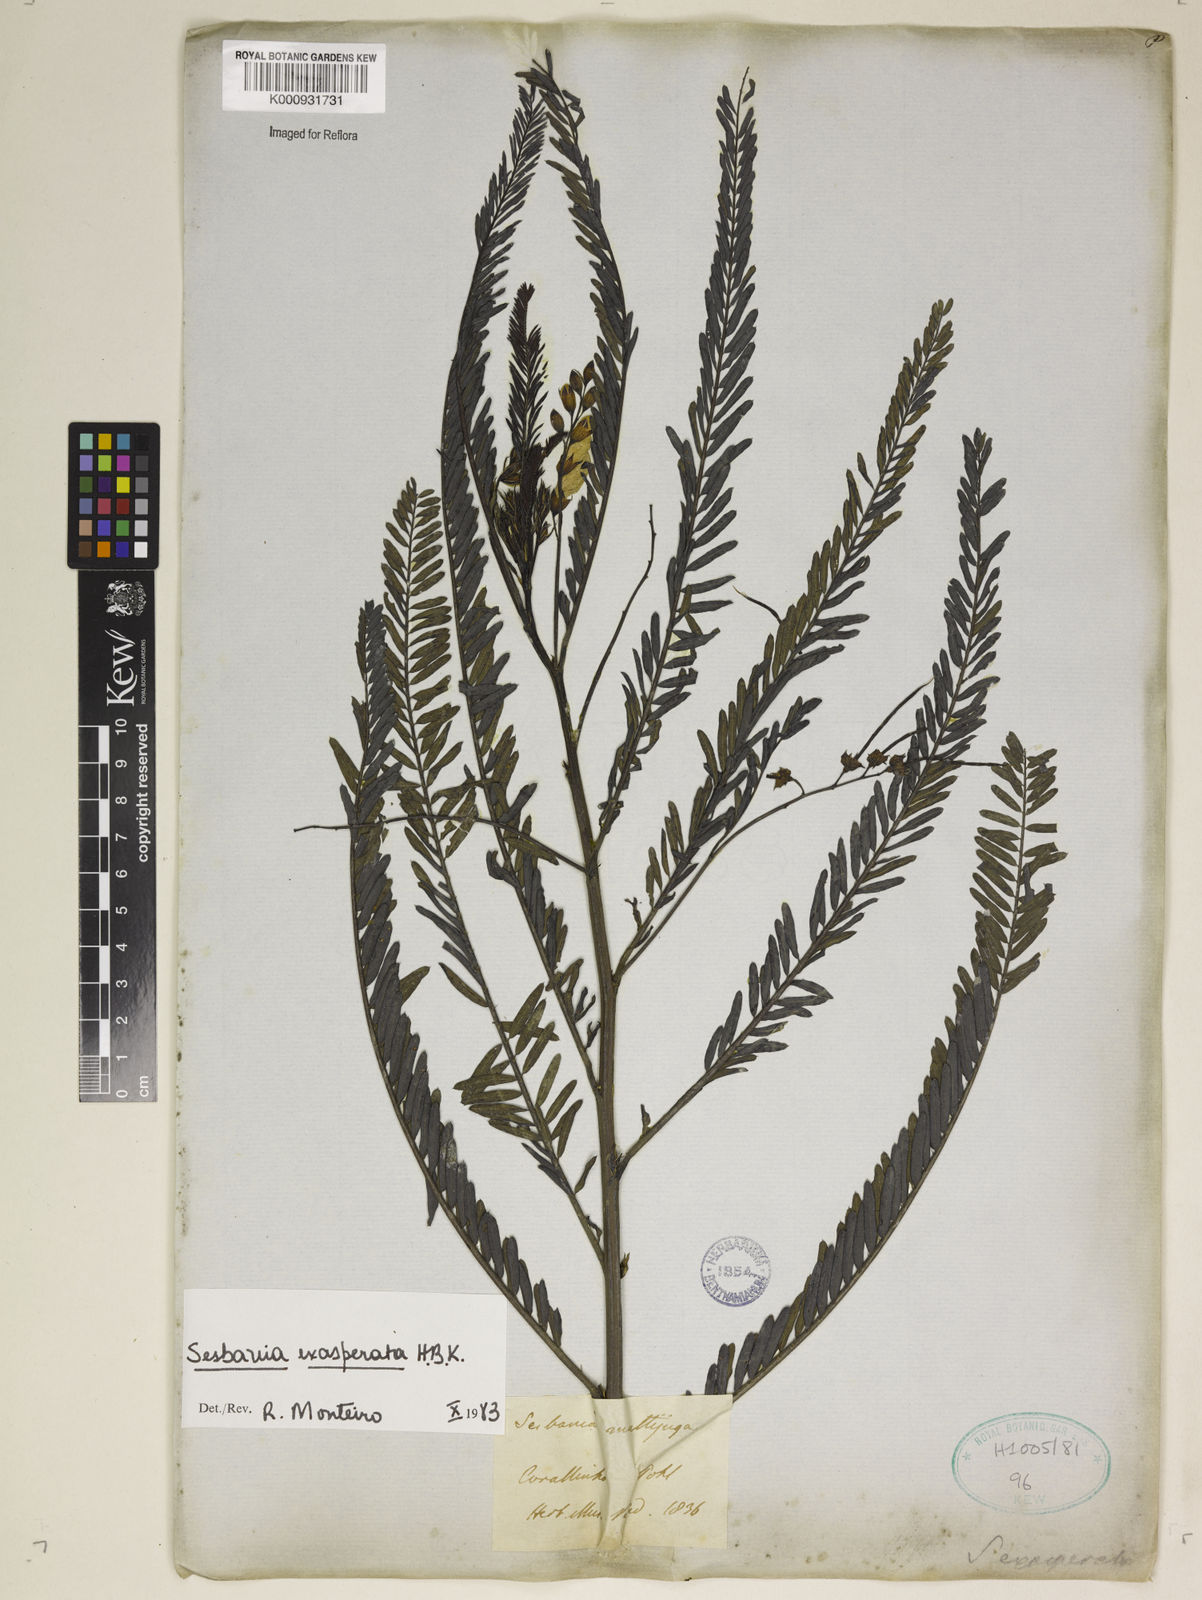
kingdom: Plantae
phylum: Tracheophyta
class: Magnoliopsida
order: Fabales
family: Fabaceae
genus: Sesbania
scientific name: Sesbania exasperata
